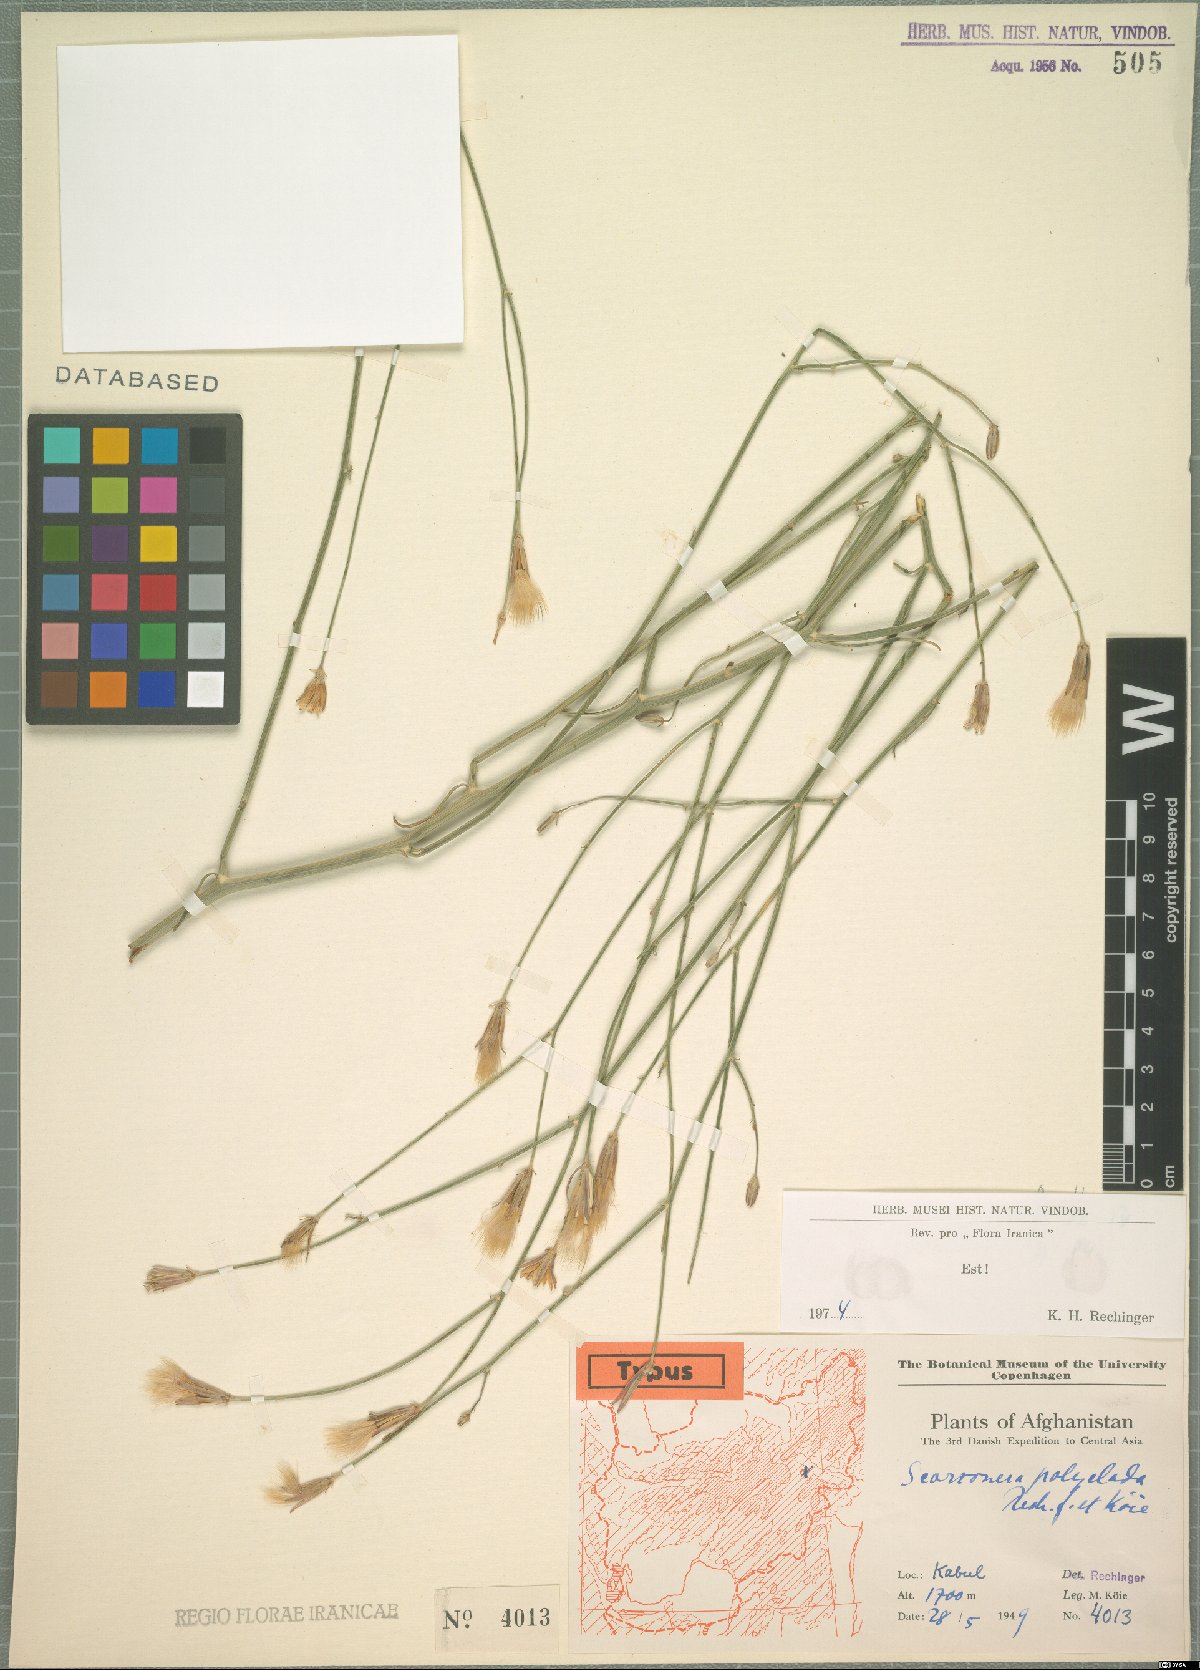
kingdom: Plantae
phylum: Tracheophyta
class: Magnoliopsida
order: Asterales
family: Asteraceae
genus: Ramaliella
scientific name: Ramaliella polyclada
